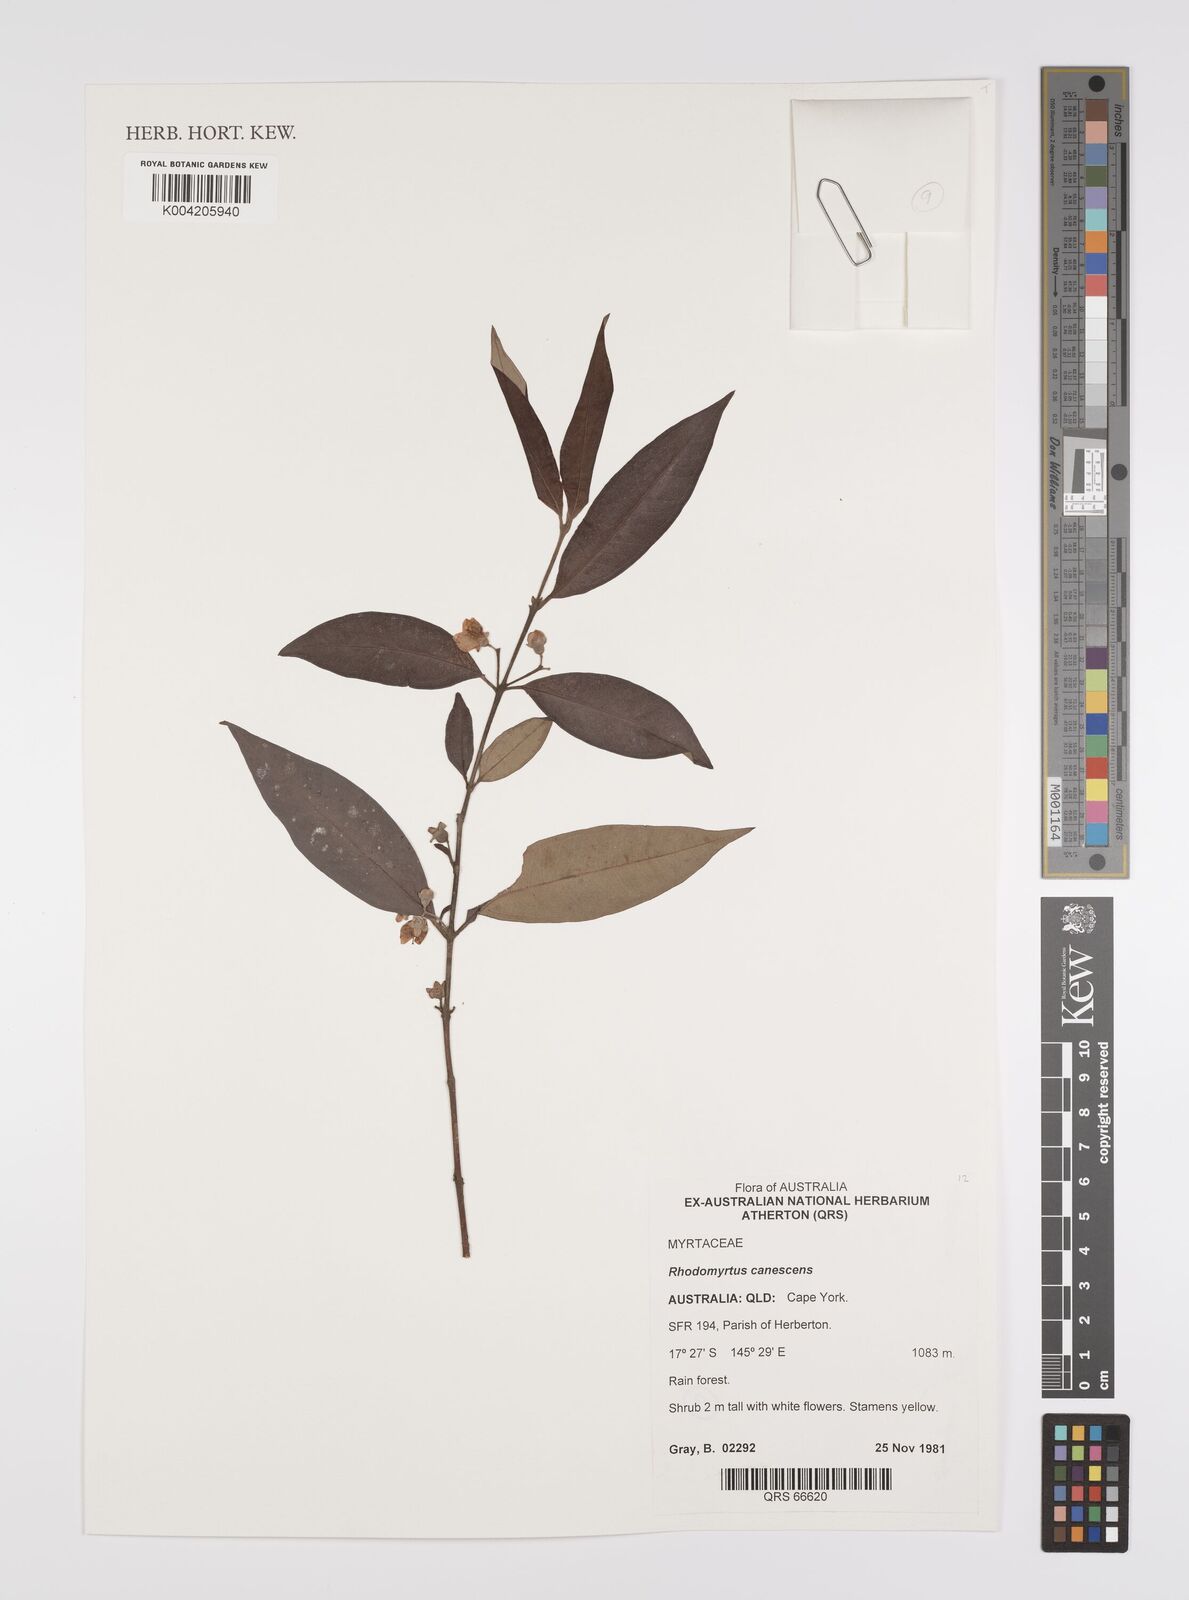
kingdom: Plantae
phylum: Tracheophyta
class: Magnoliopsida
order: Myrtales
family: Myrtaceae
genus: Rhodomyrtus
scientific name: Rhodomyrtus trineura
